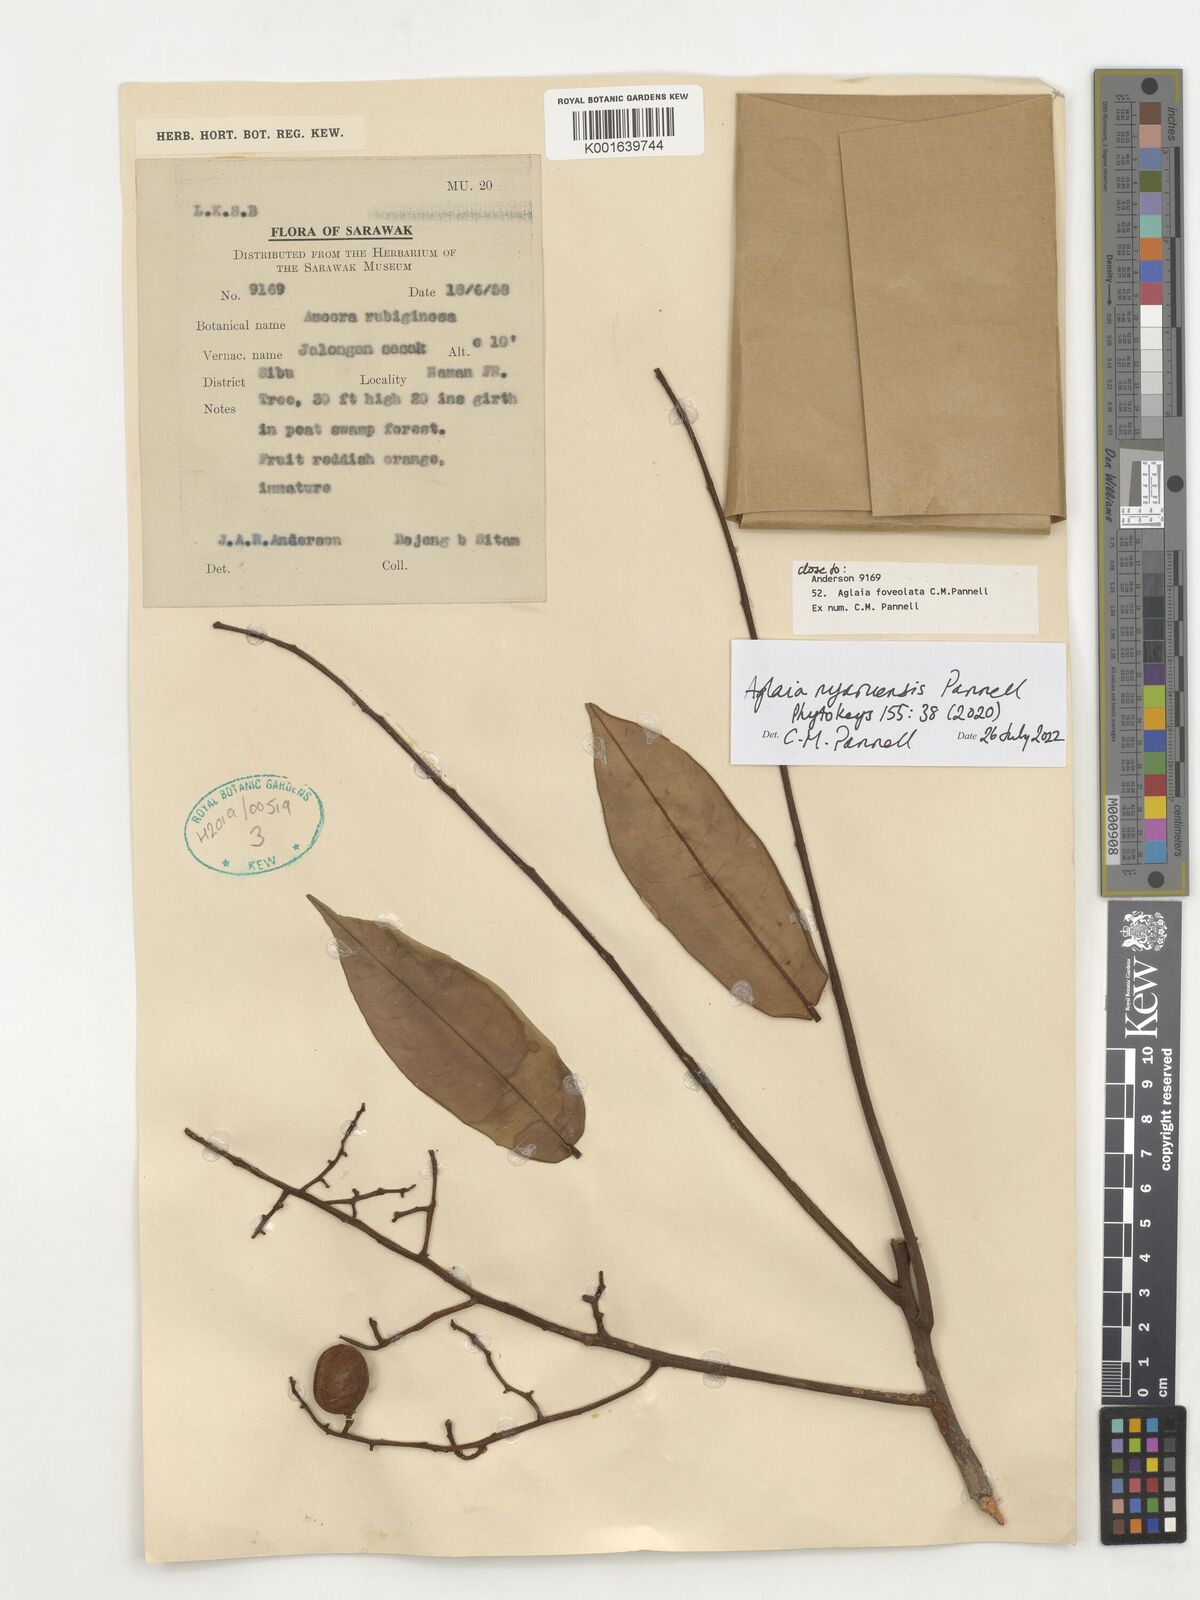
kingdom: Plantae
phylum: Tracheophyta
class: Magnoliopsida
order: Sapindales
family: Meliaceae
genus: Aglaia
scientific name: Aglaia
